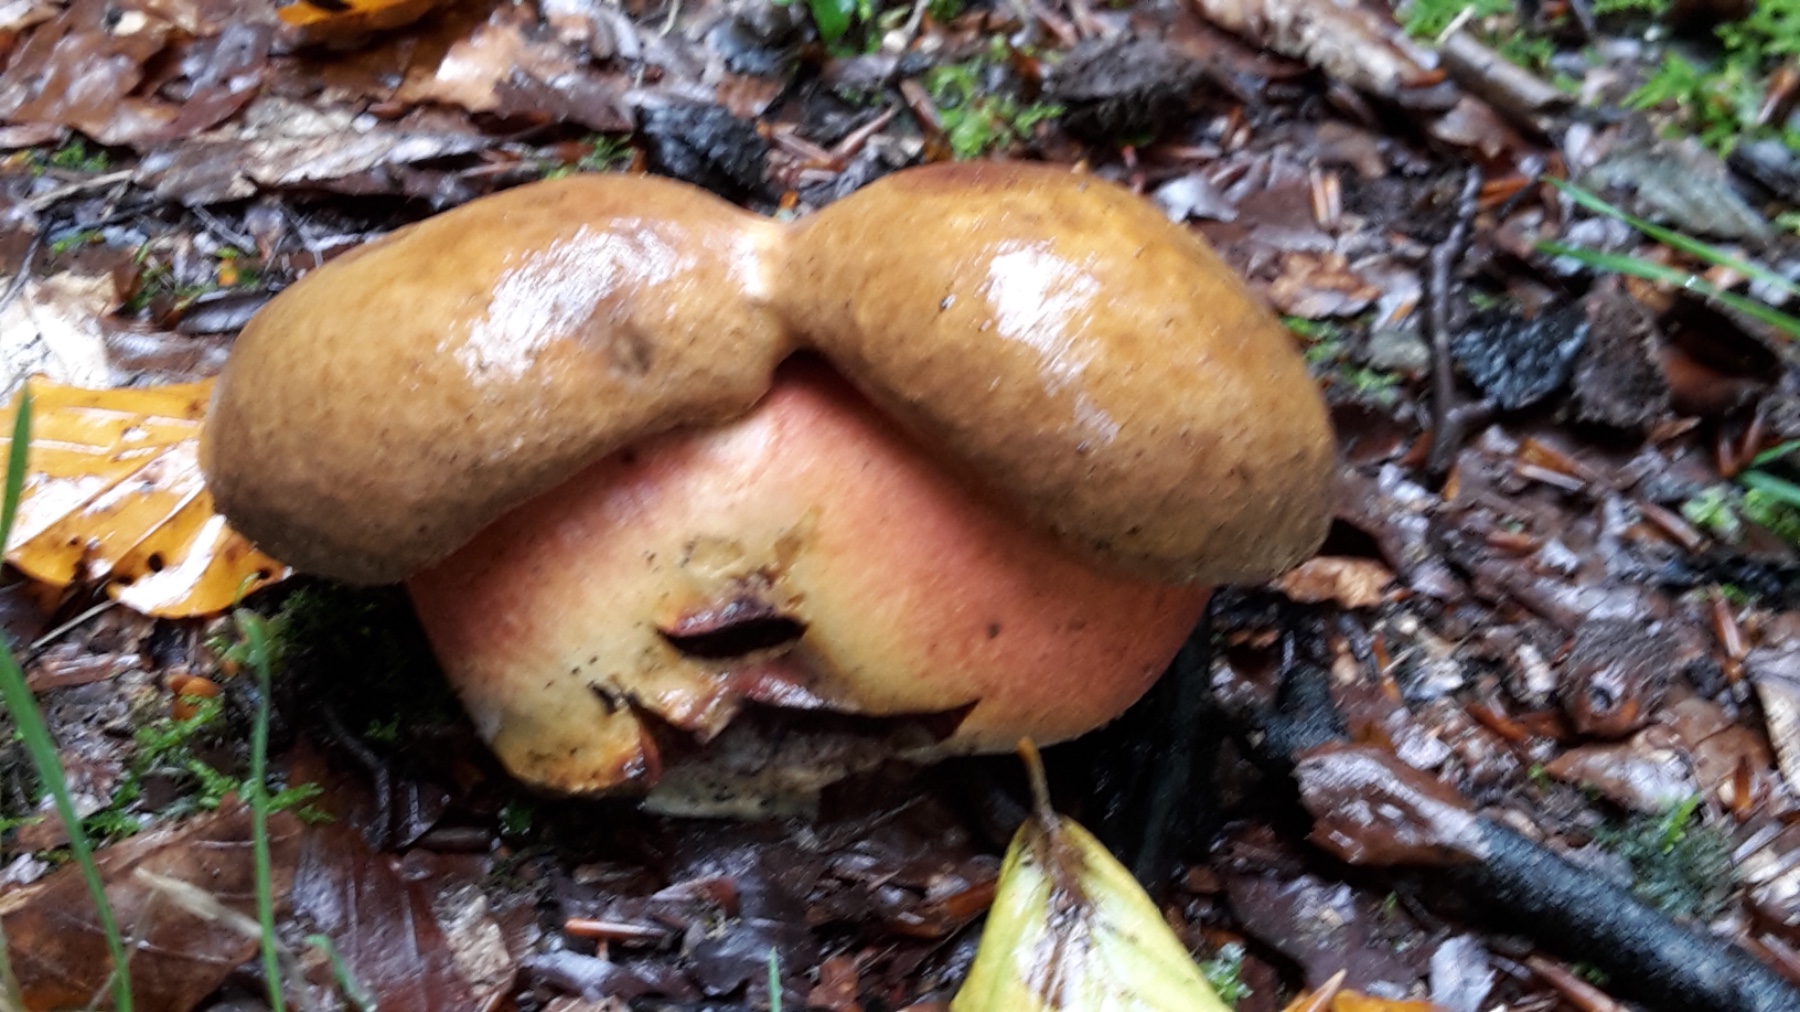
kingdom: Fungi
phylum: Basidiomycota
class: Agaricomycetes
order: Boletales
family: Boletaceae
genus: Neoboletus
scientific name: Neoboletus erythropus
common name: punktstokket indigorørhat
